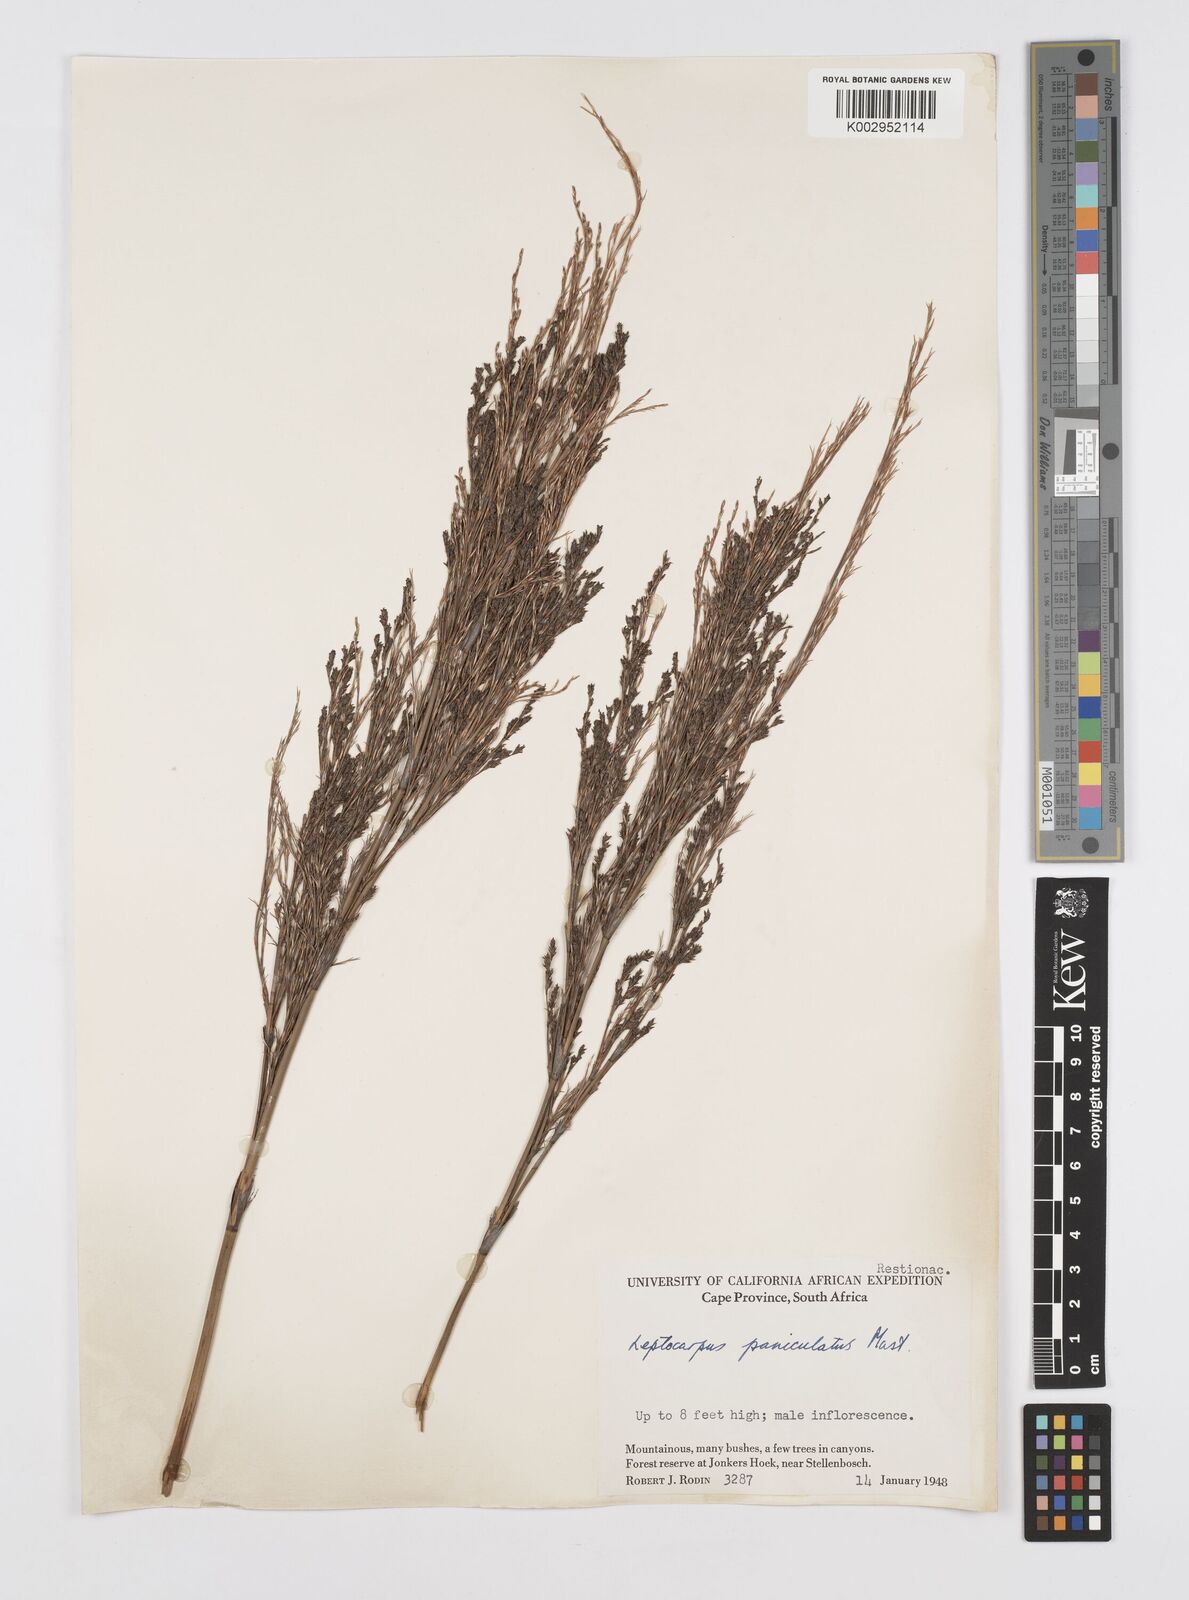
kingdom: Plantae
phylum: Tracheophyta
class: Liliopsida
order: Poales
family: Restionaceae
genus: Restio
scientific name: Restio paniculatus
